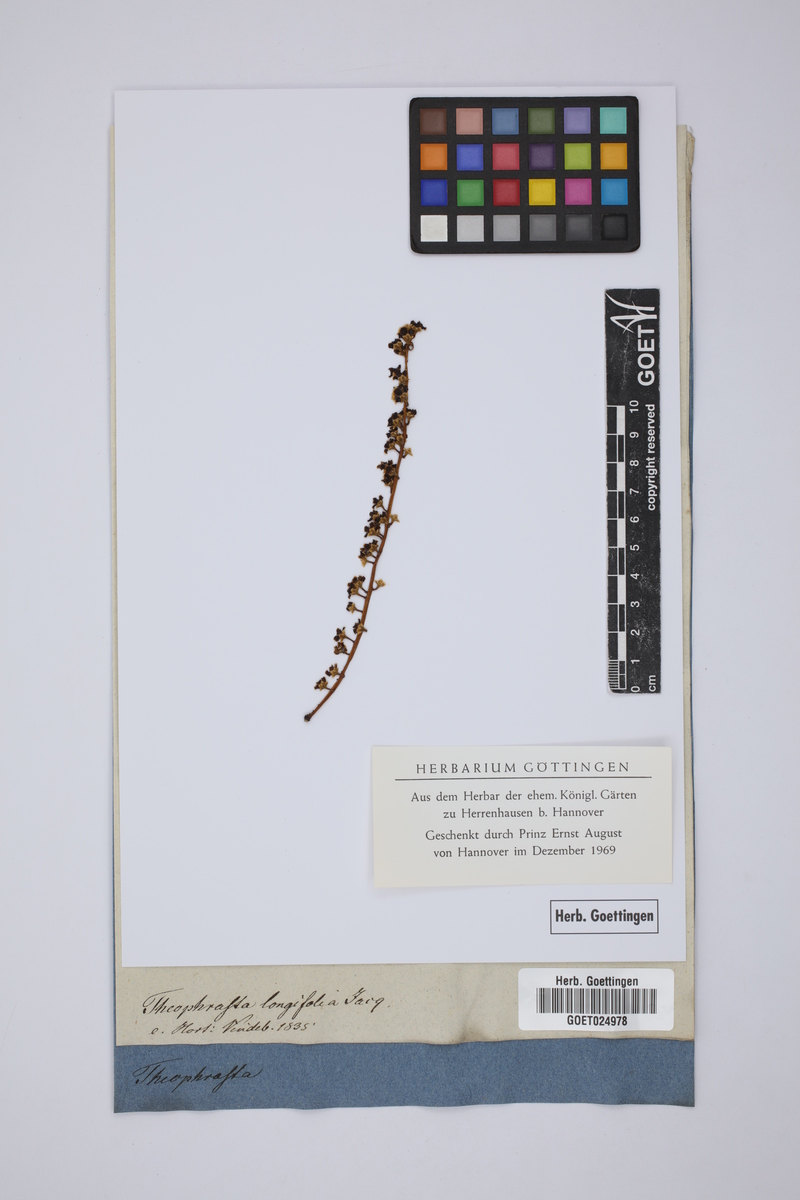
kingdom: Plantae
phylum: Tracheophyta
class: Magnoliopsida
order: Ericales
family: Primulaceae
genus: Clavija
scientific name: Clavija ornata
